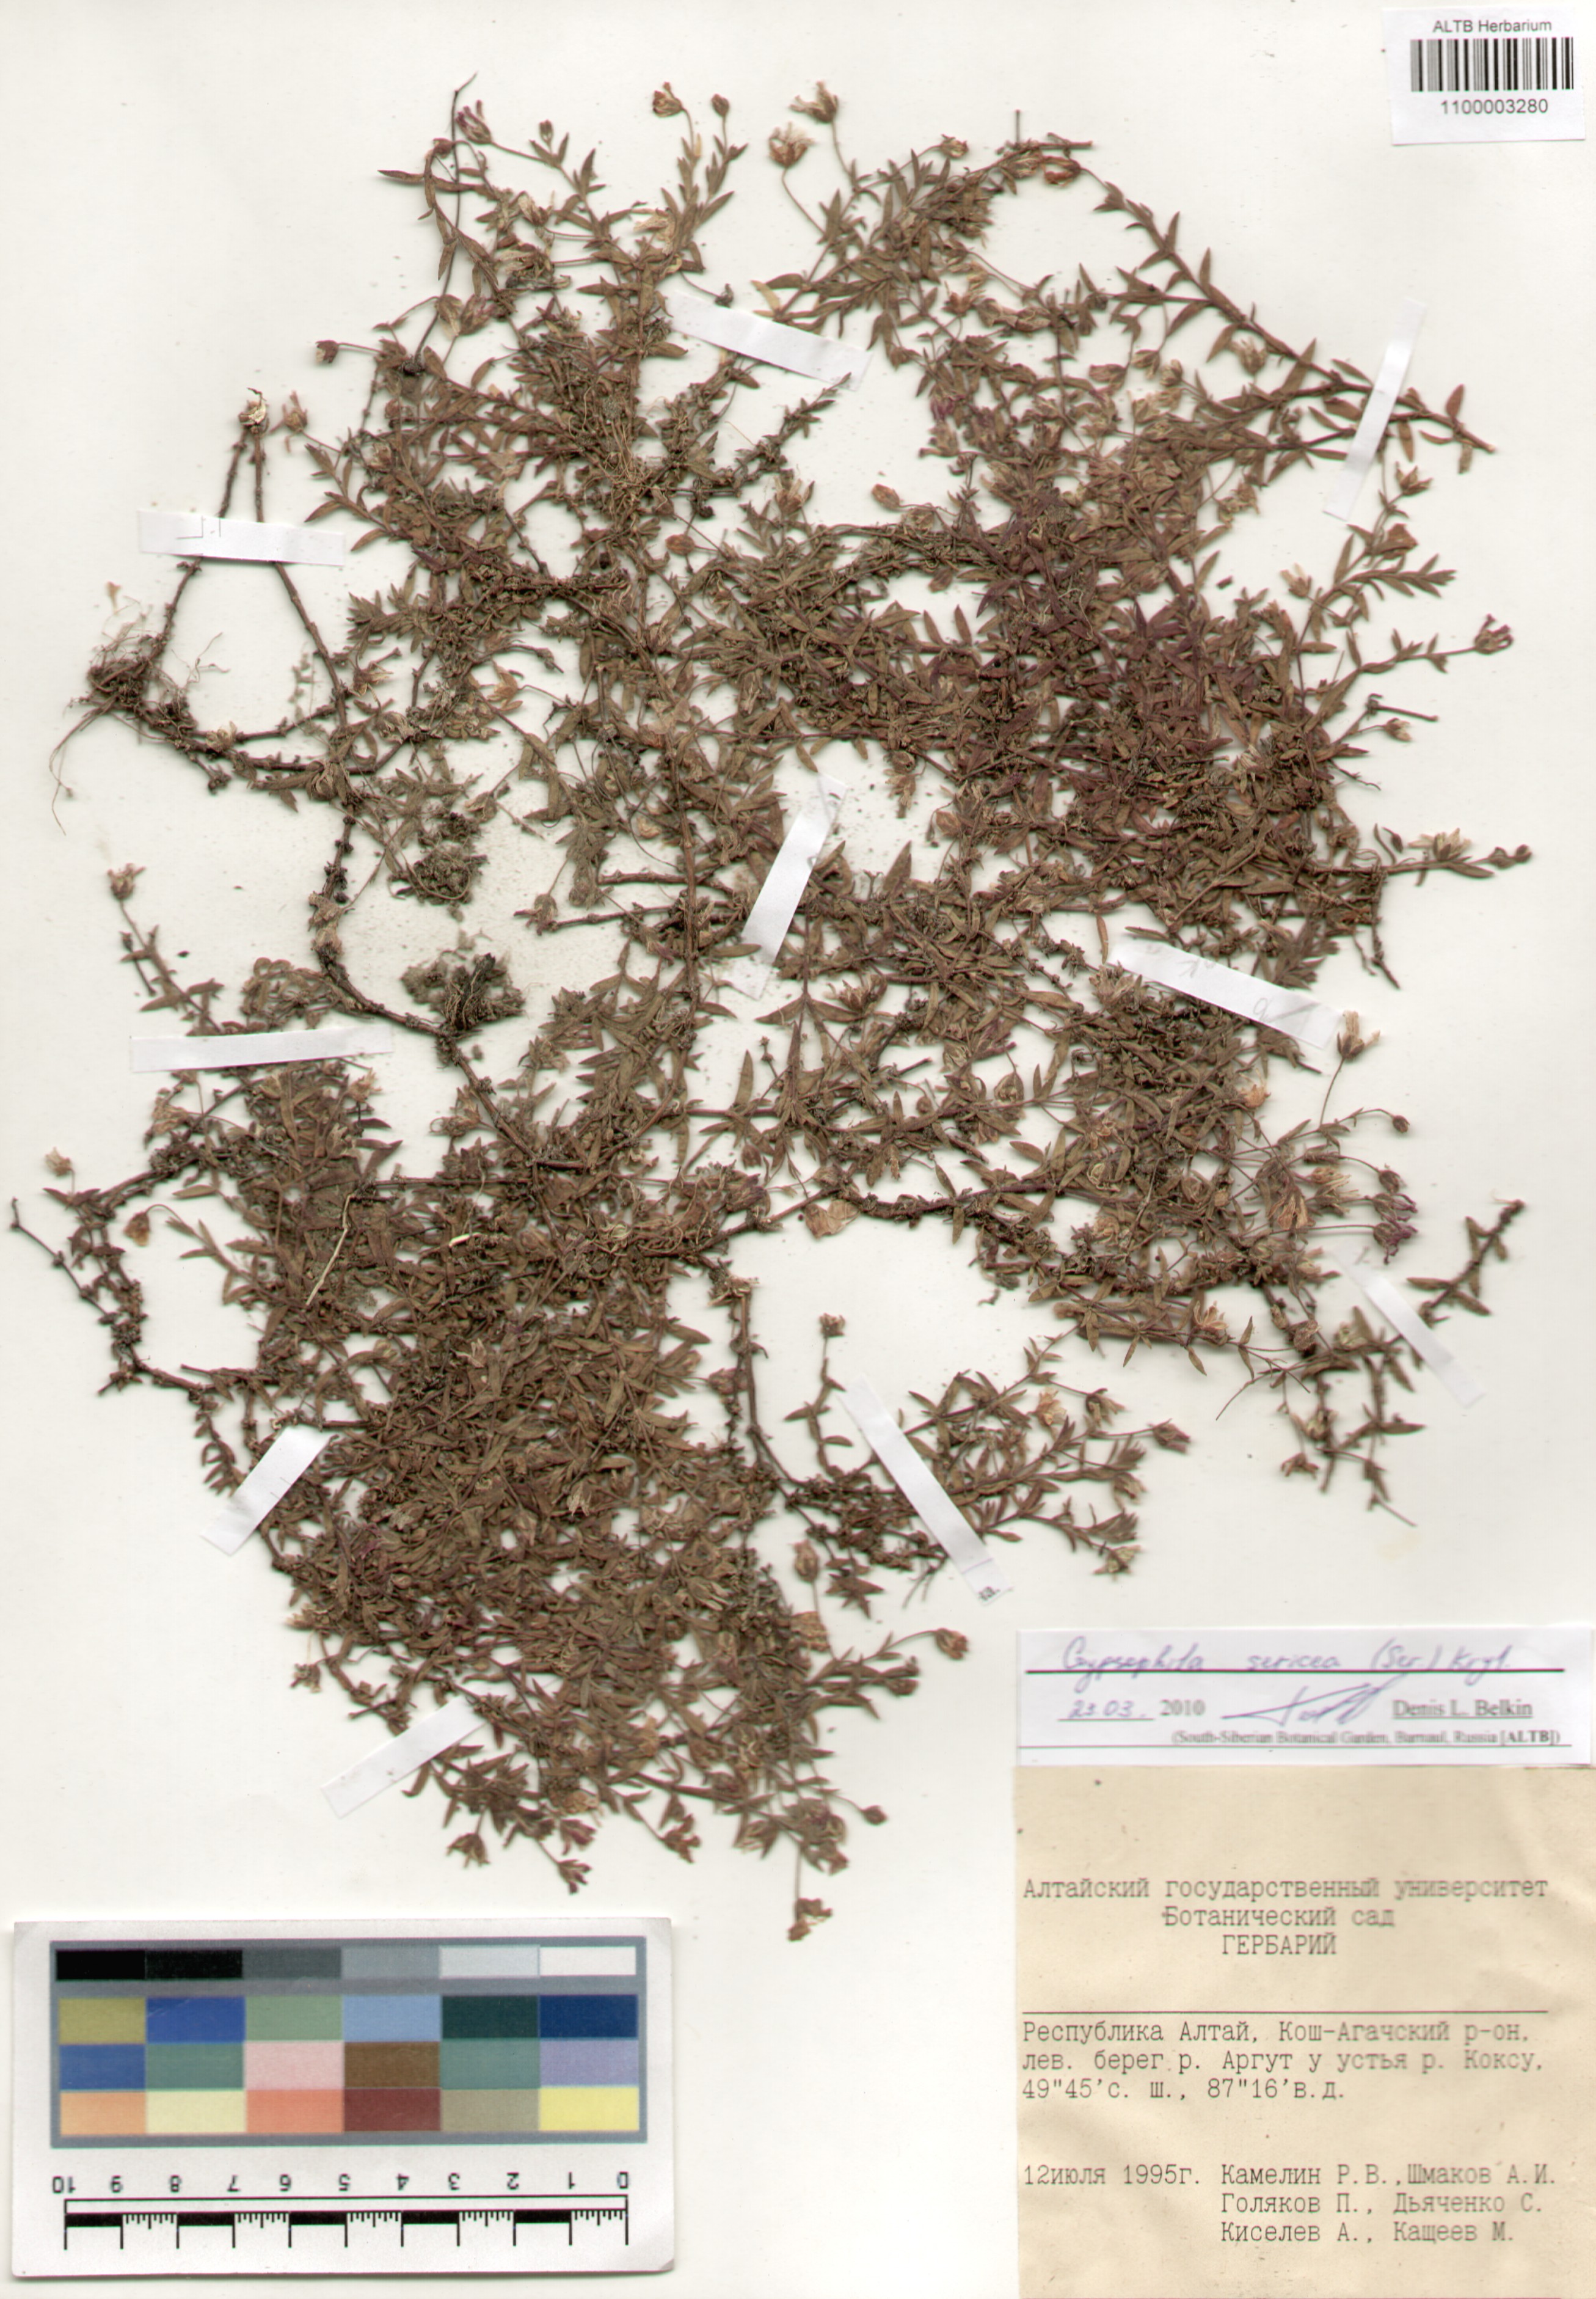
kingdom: Plantae
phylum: Tracheophyta
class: Magnoliopsida
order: Caryophyllales
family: Caryophyllaceae
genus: Heterochroa
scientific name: Heterochroa petraea
